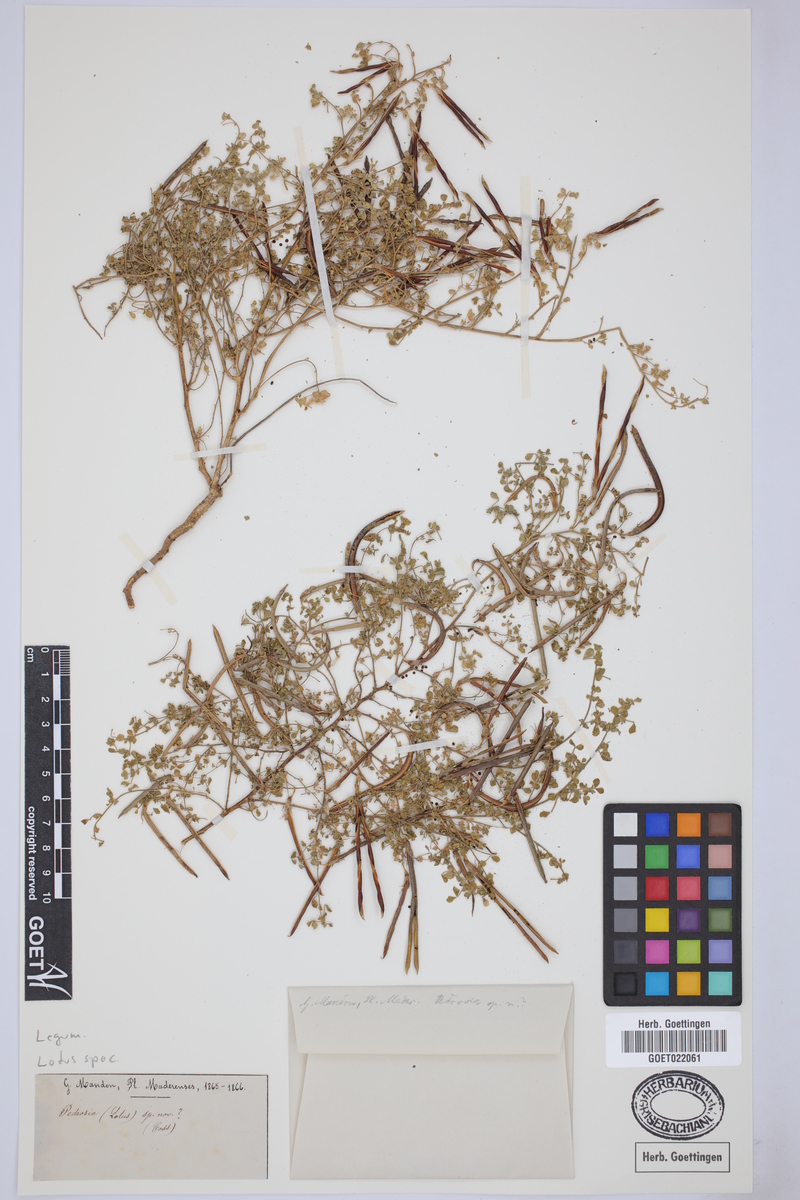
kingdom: Plantae
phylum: Tracheophyta
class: Magnoliopsida
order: Fabales
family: Fabaceae
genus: Lotus
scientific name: Lotus
